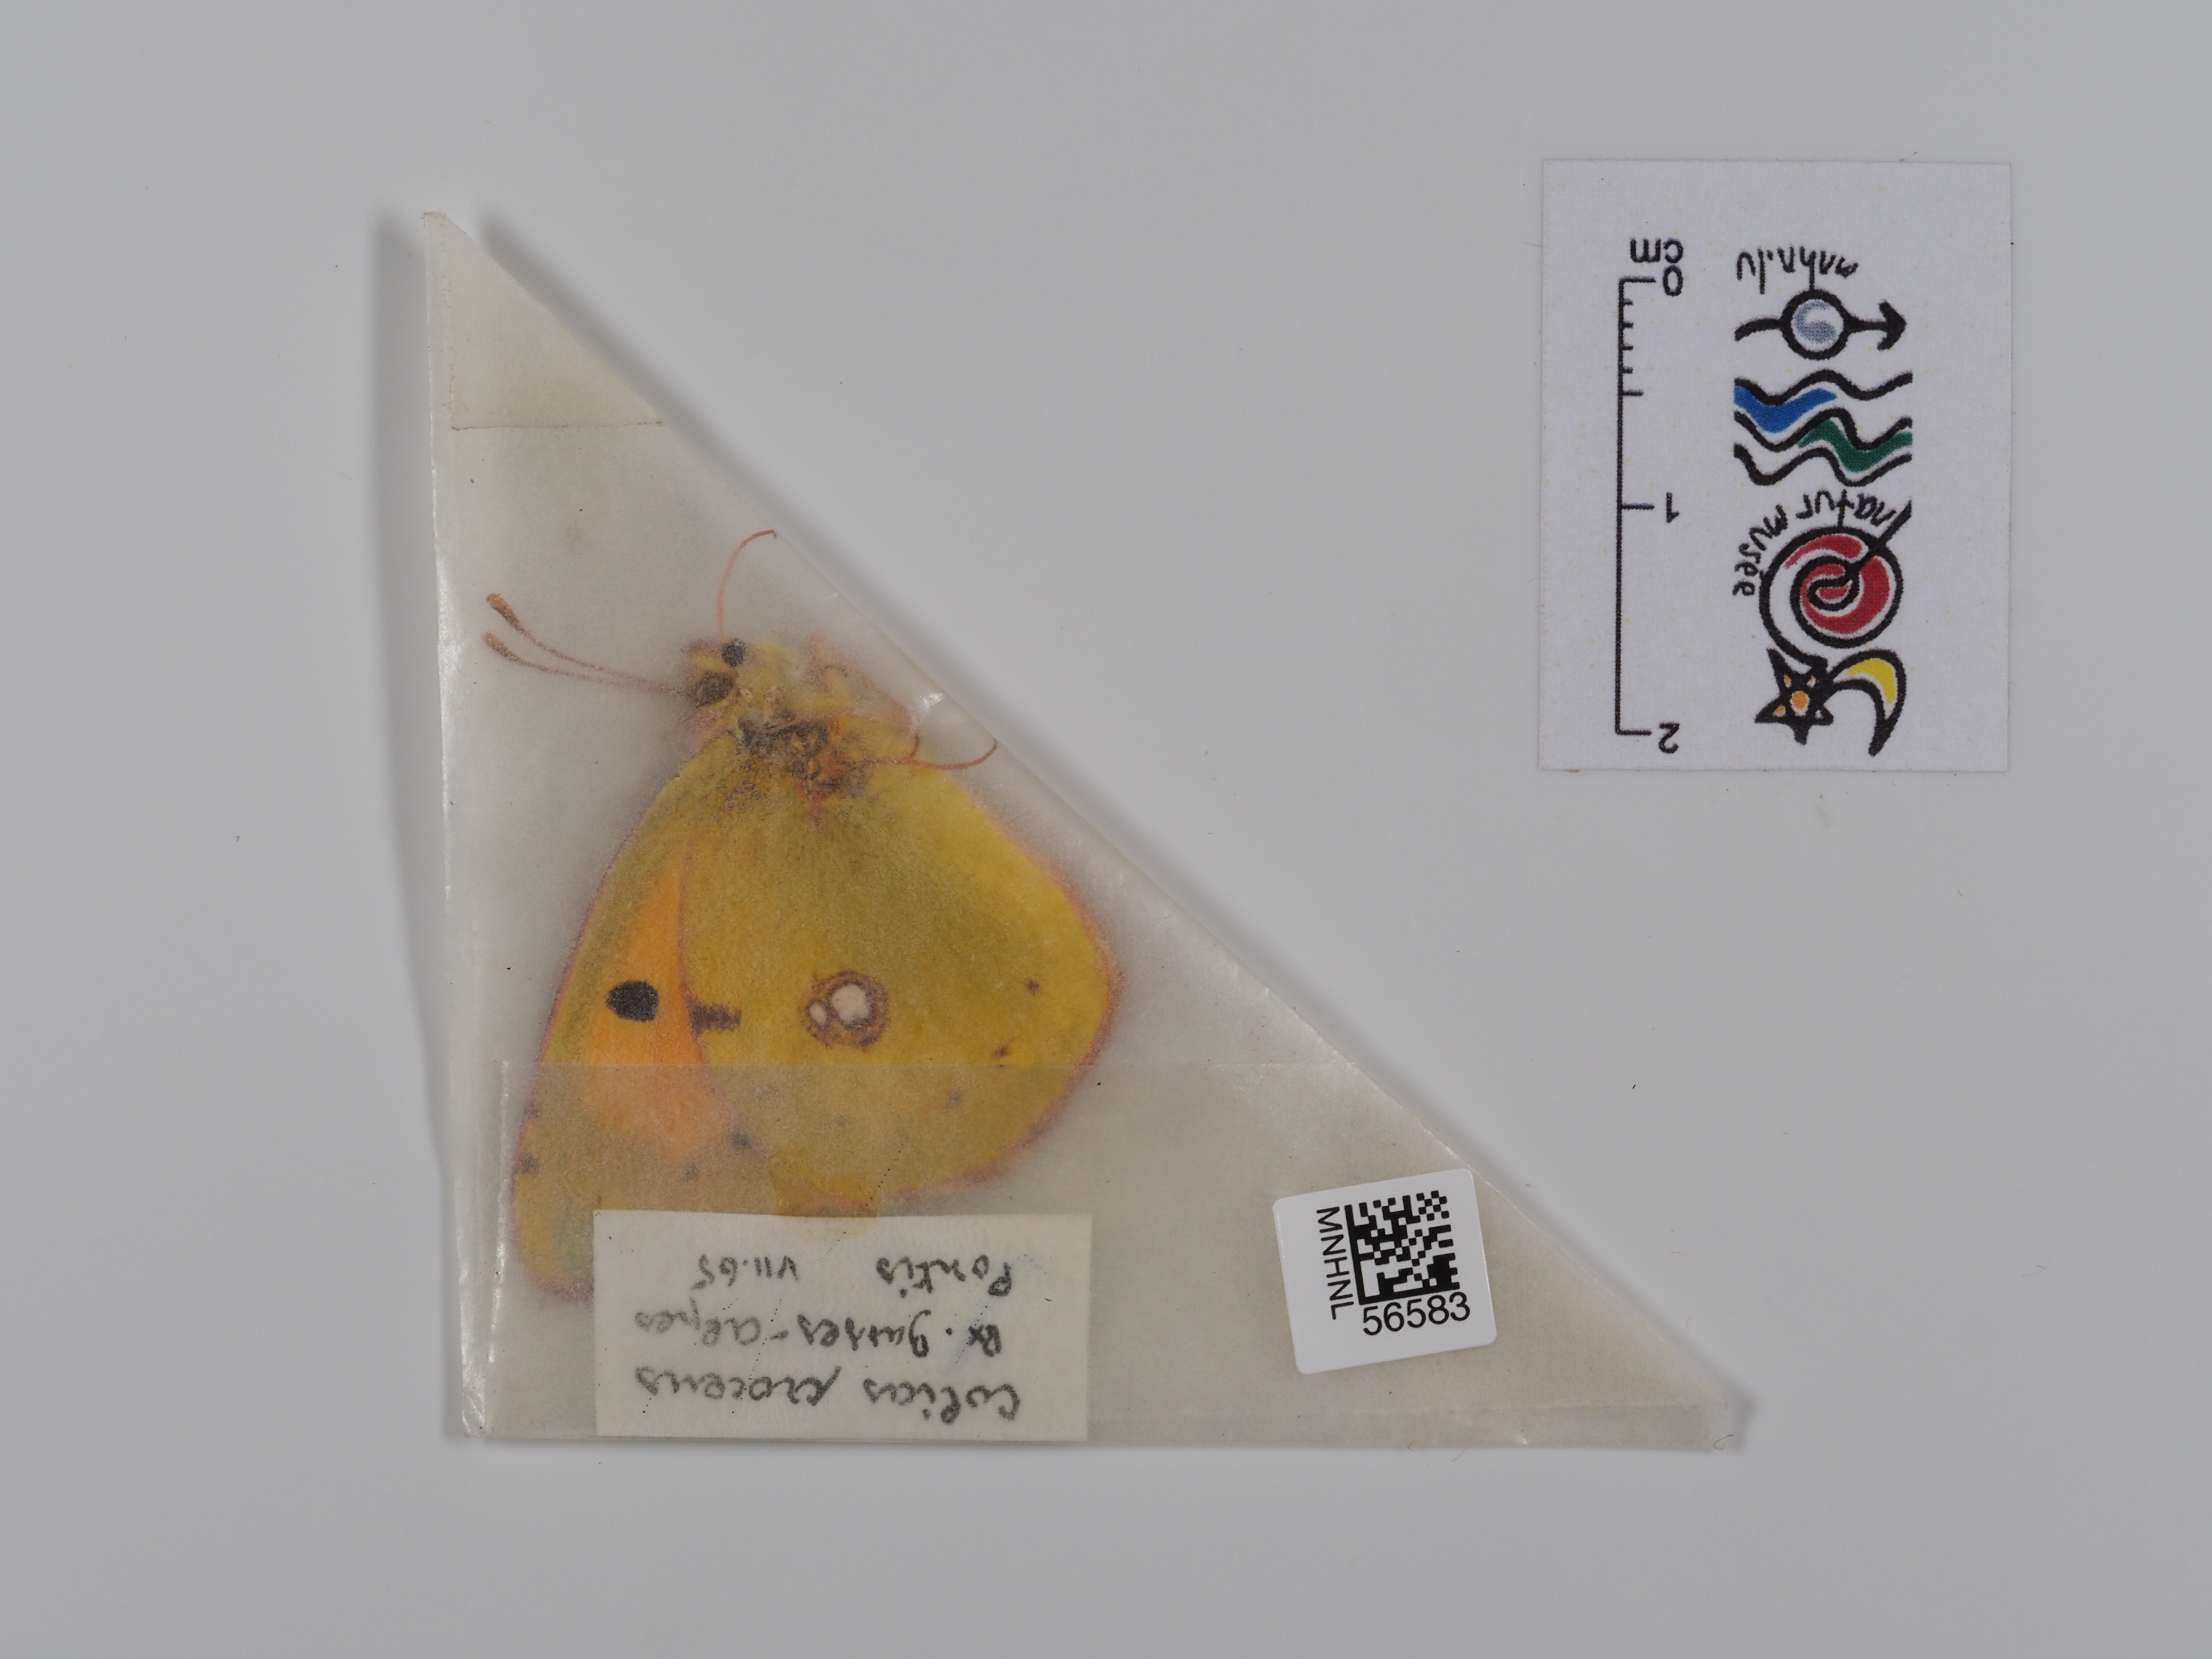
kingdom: Animalia
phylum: Arthropoda
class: Insecta
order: Lepidoptera
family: Pieridae
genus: Colias
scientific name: Colias croceus
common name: Clouded yellow
